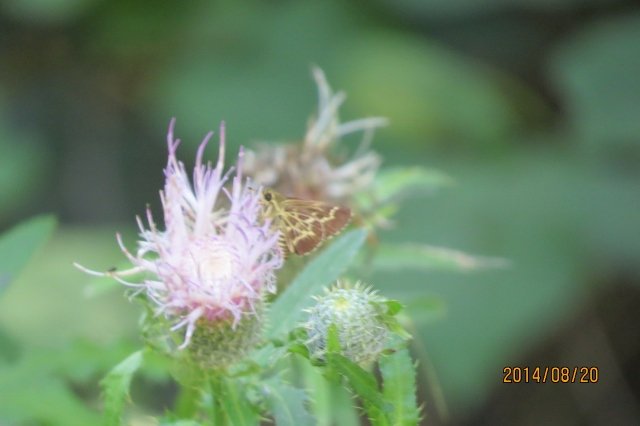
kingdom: Animalia
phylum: Arthropoda
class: Insecta
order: Lepidoptera
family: Hesperiidae
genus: Mastor
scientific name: Mastor aesculapius
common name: Lace-winged Roadside-Skipper
